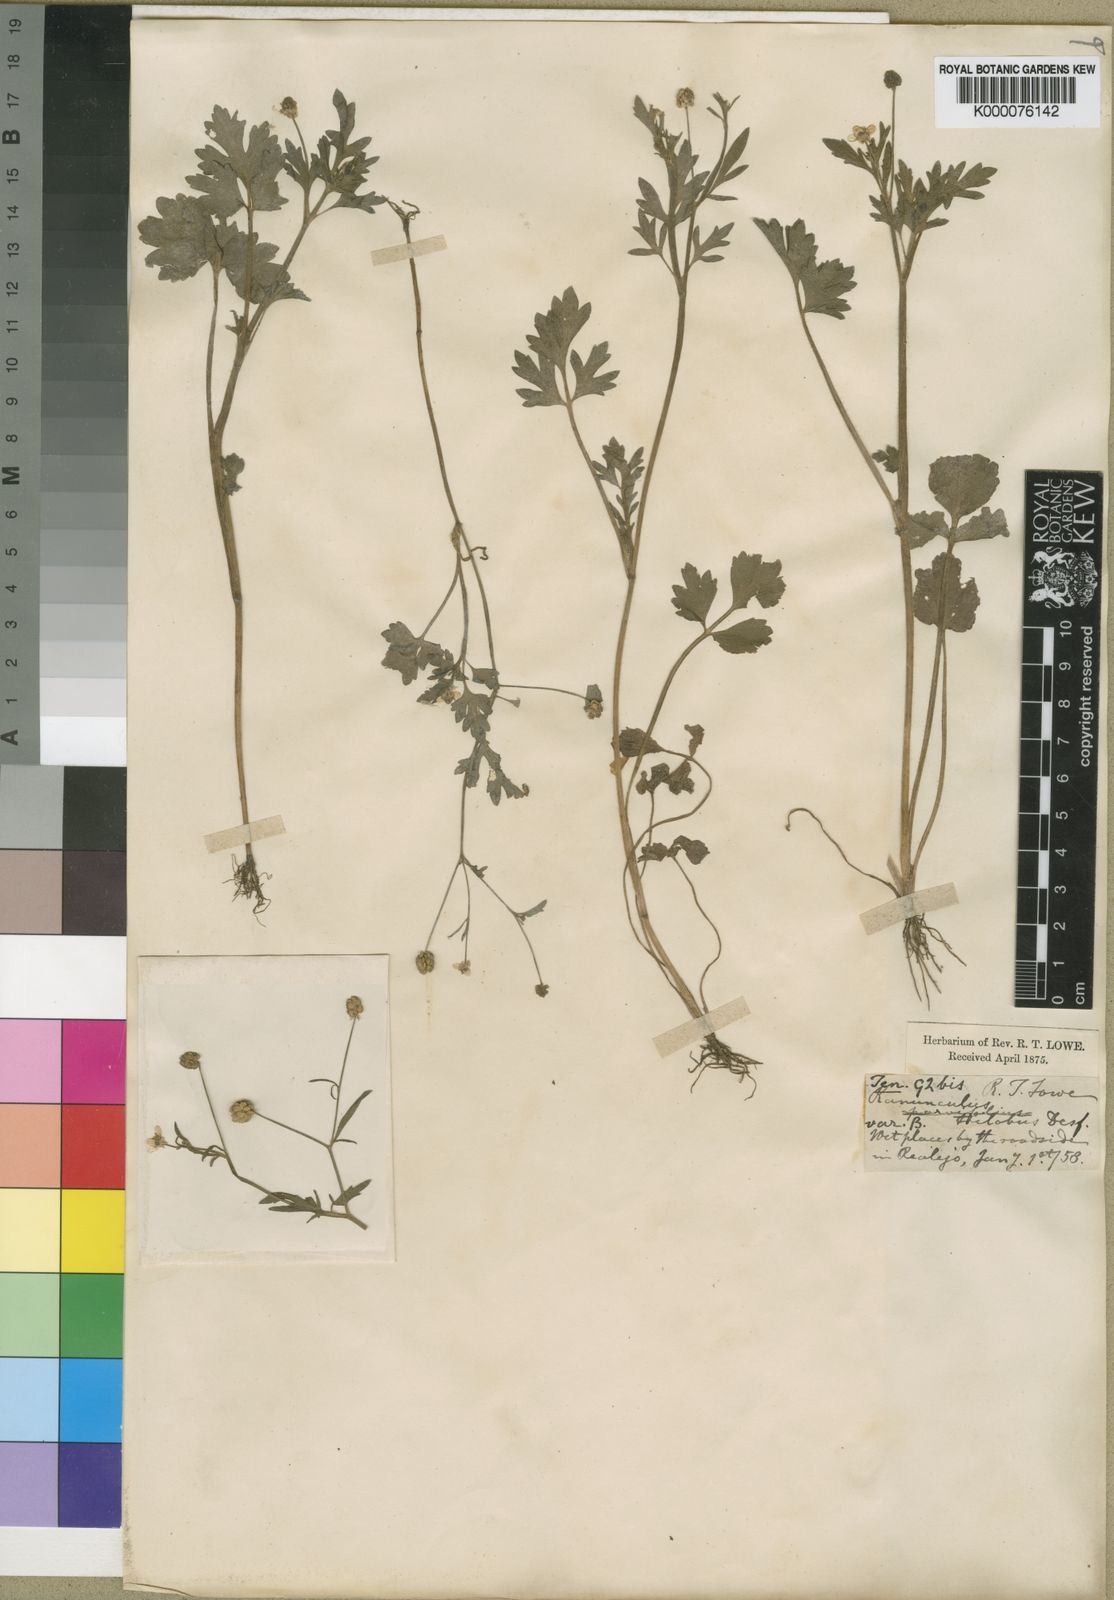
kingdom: Plantae
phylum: Tracheophyta
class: Magnoliopsida
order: Ranunculales
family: Ranunculaceae
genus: Ranunculus
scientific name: Ranunculus trilobus
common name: Threelobe buttercup
